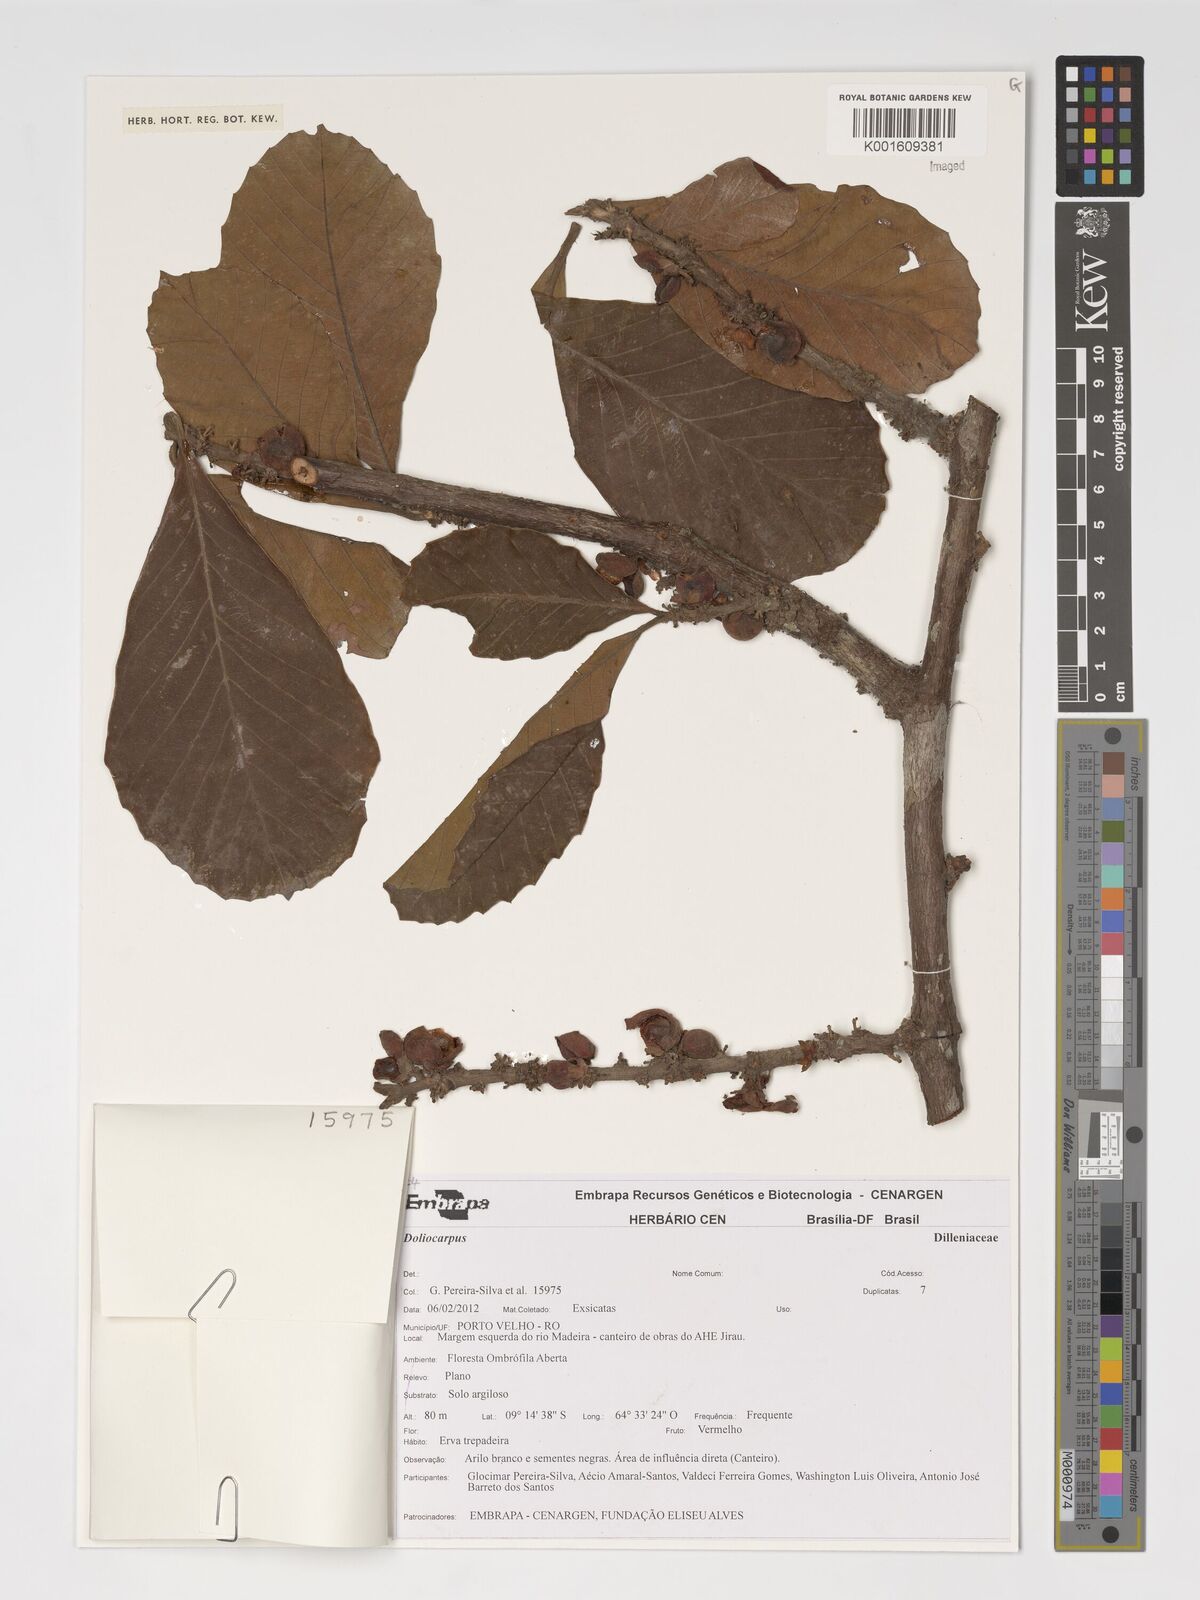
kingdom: Plantae
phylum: Tracheophyta
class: Magnoliopsida
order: Dilleniales
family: Dilleniaceae
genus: Doliocarpus
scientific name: Doliocarpus
